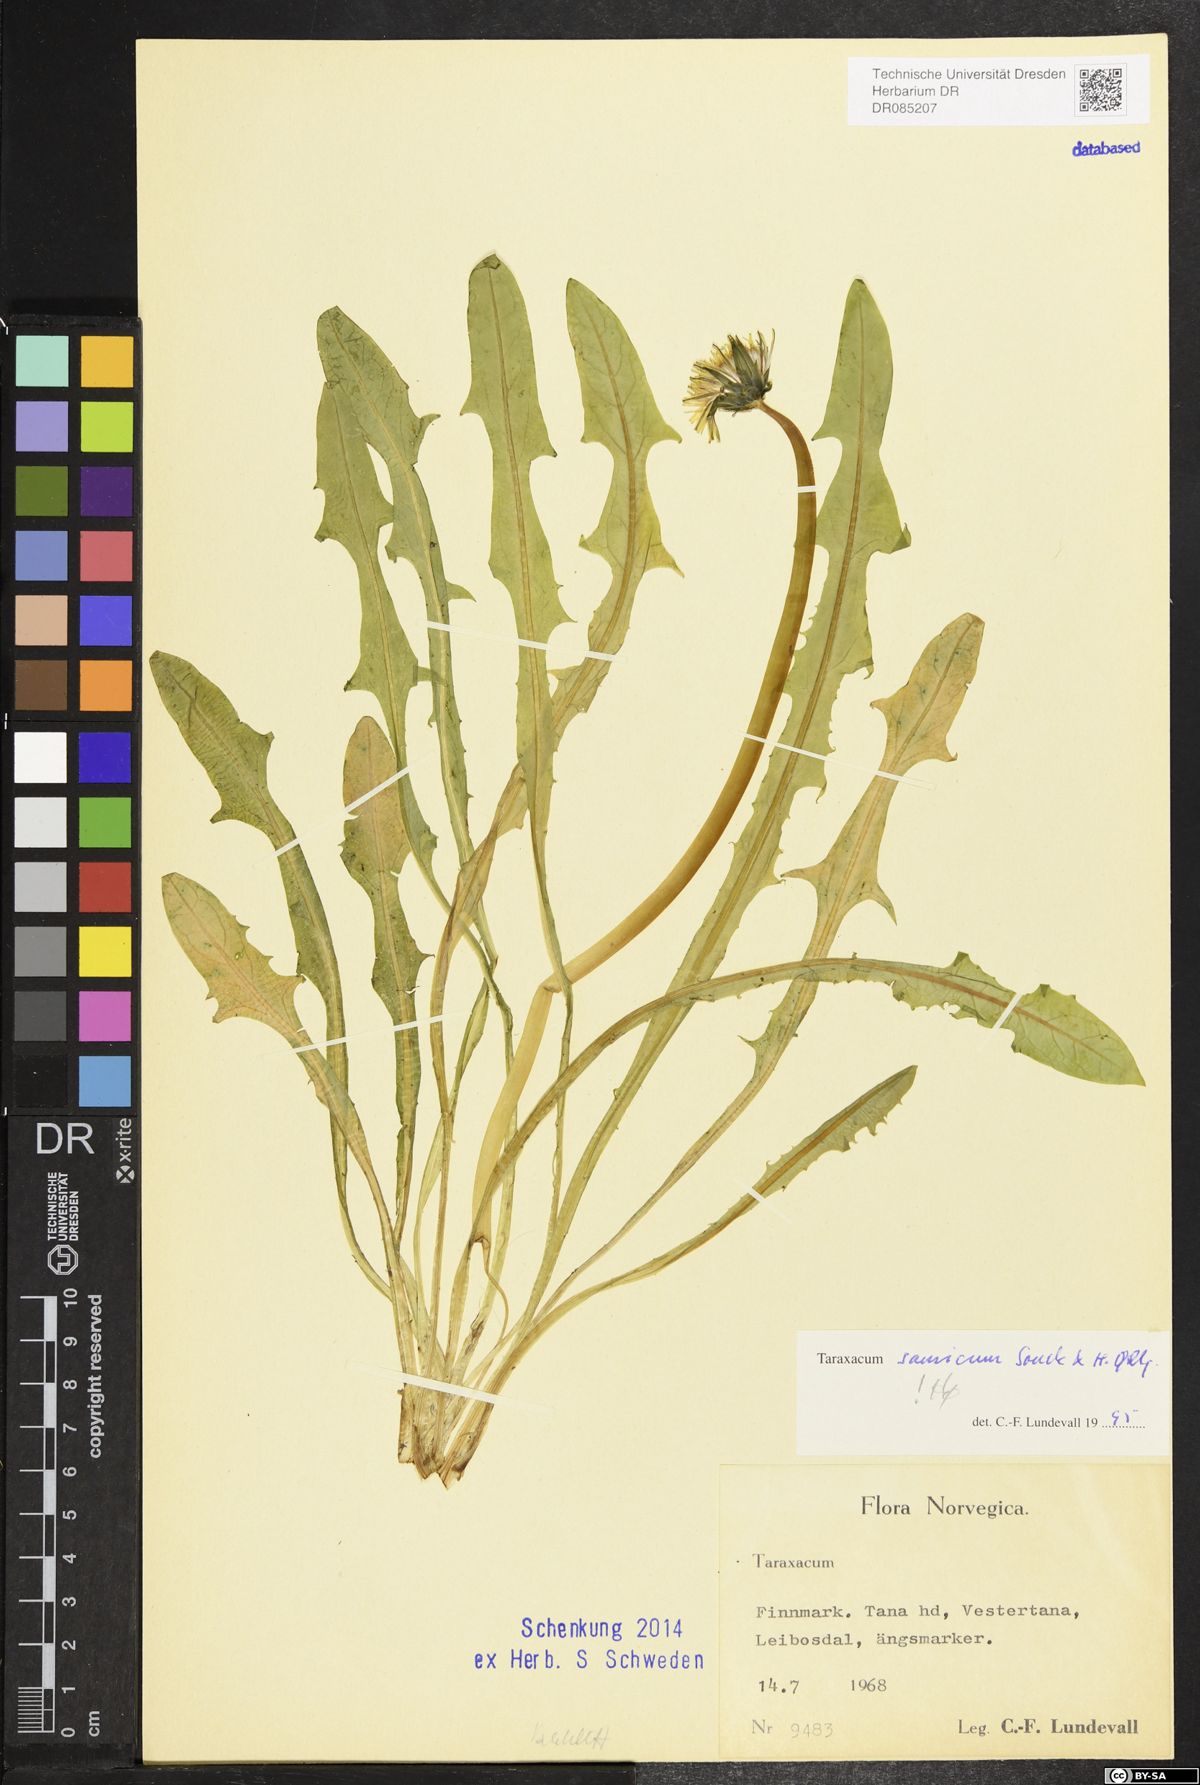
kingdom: Plantae
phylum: Tracheophyta
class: Magnoliopsida
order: Asterales
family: Asteraceae
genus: Taraxacum
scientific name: Taraxacum samicum
